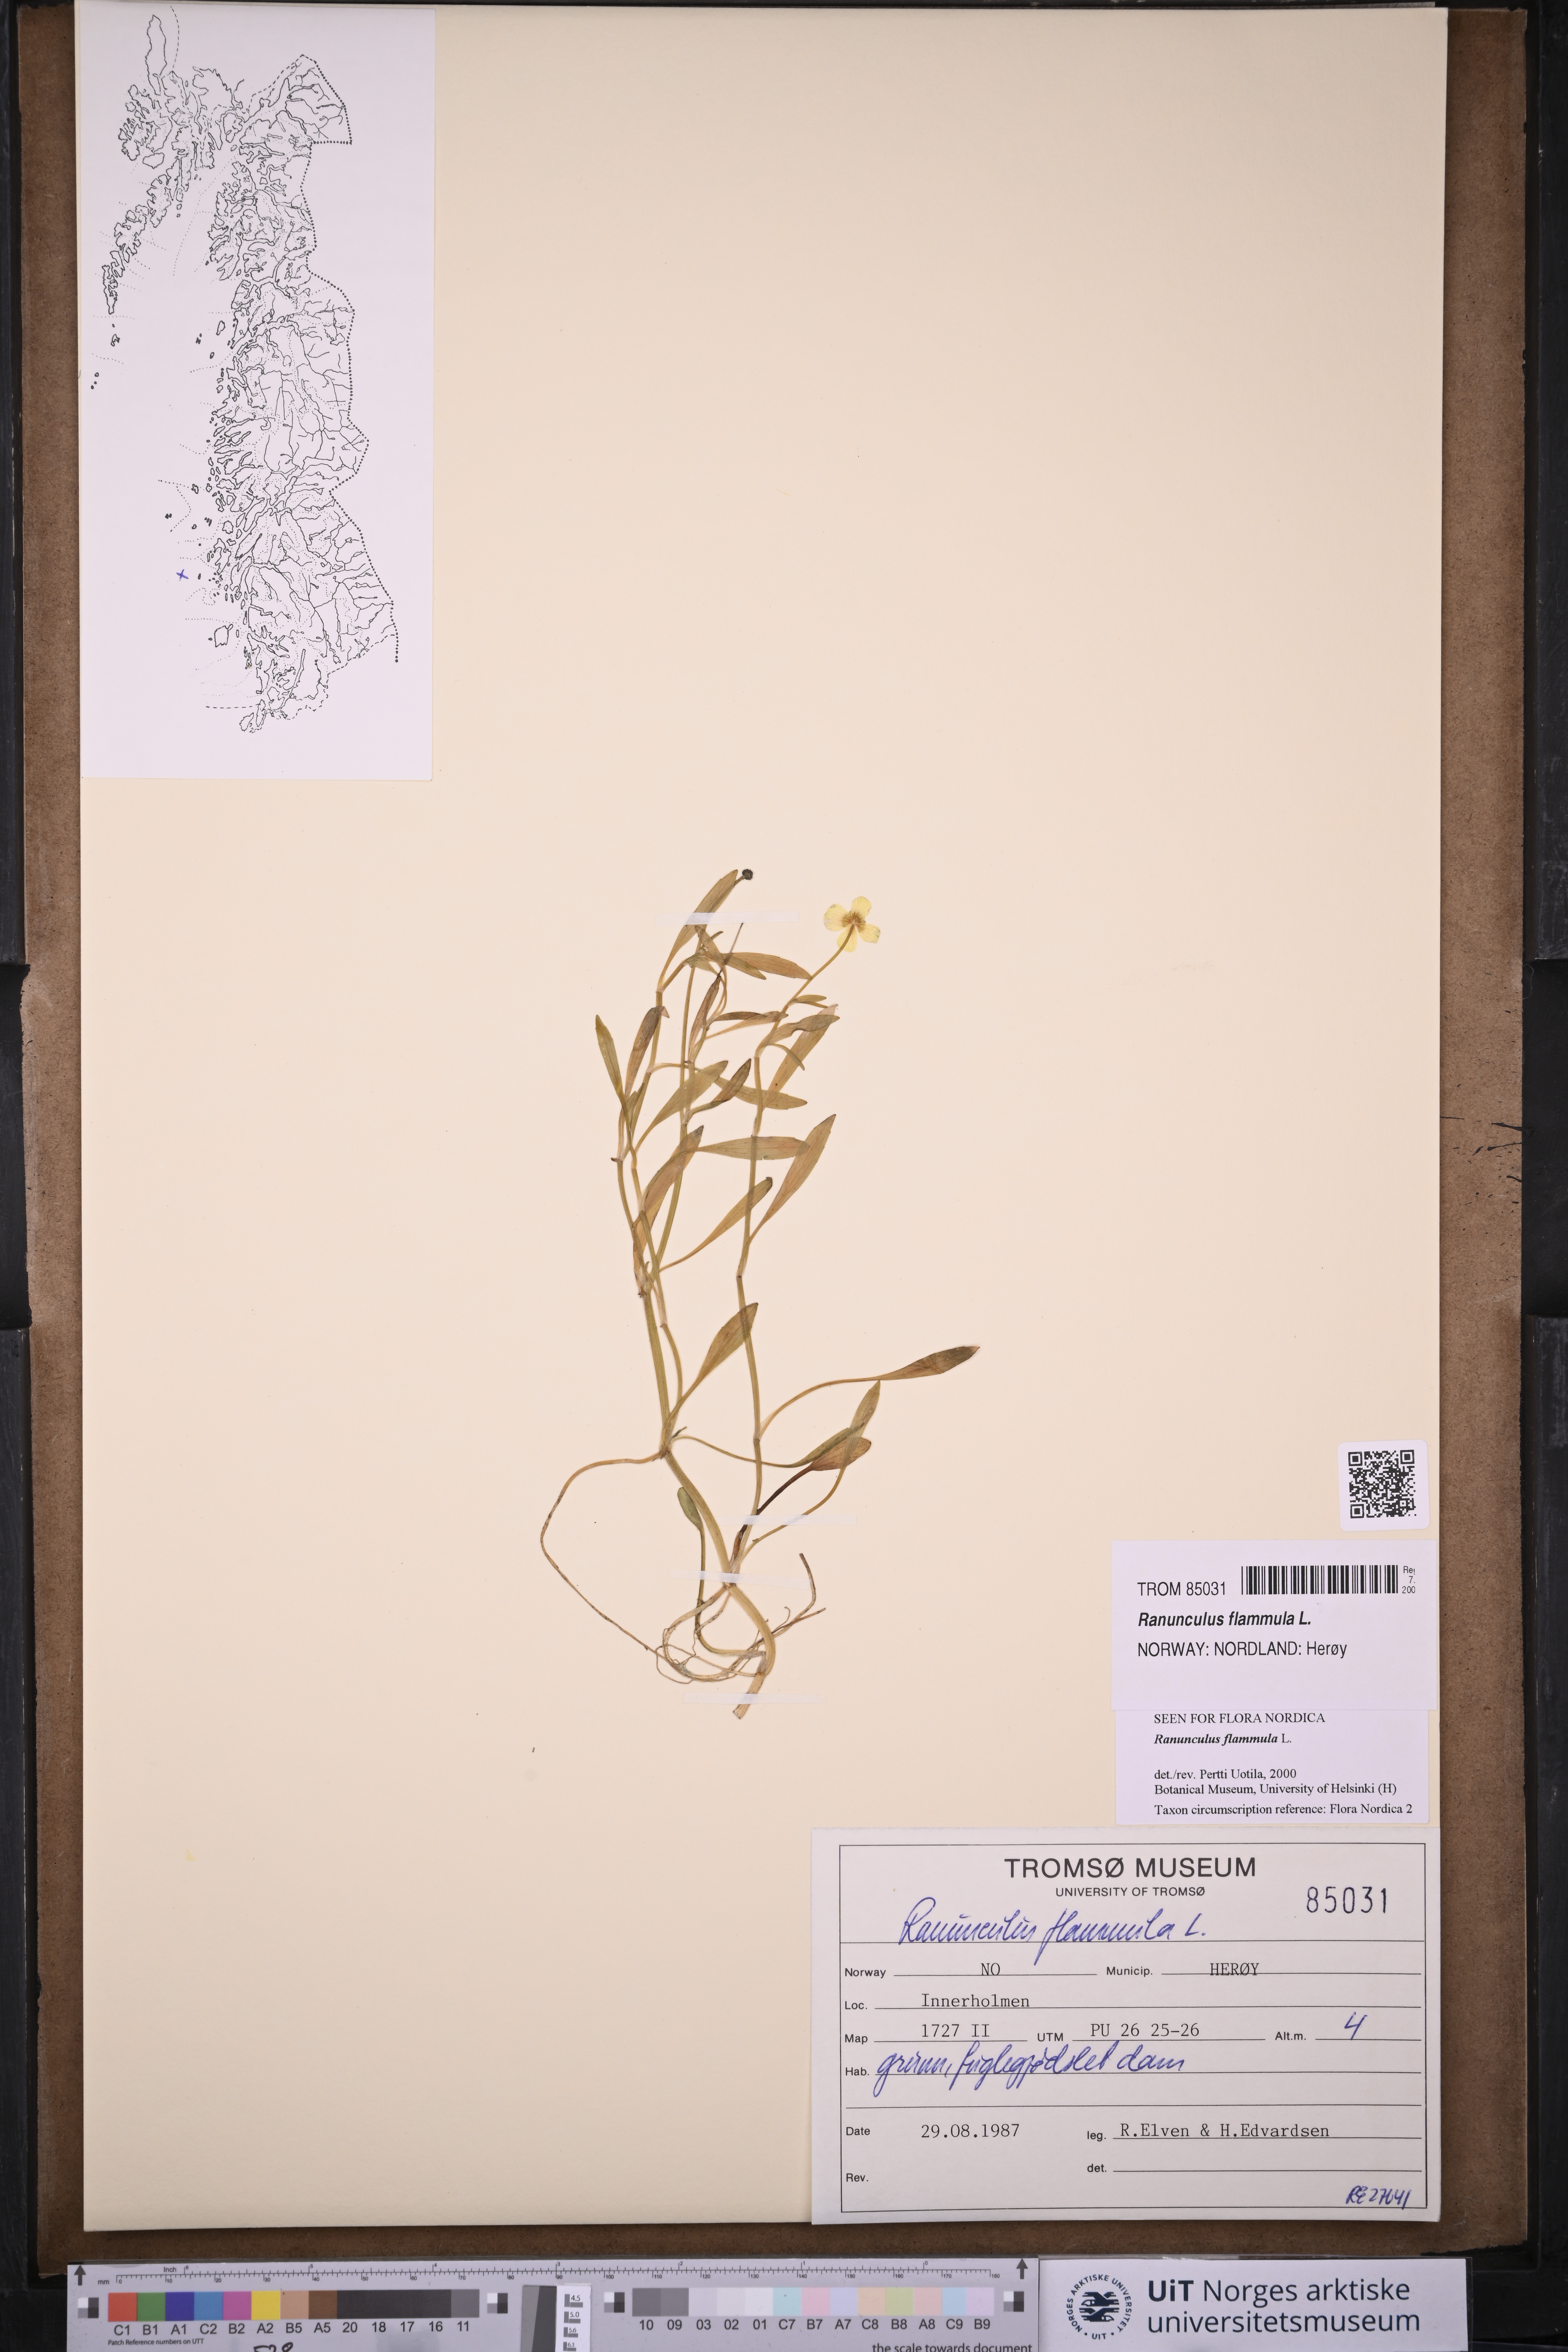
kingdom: Plantae
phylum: Tracheophyta
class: Magnoliopsida
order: Ranunculales
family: Ranunculaceae
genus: Ranunculus
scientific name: Ranunculus flammula
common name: Lesser spearwort
